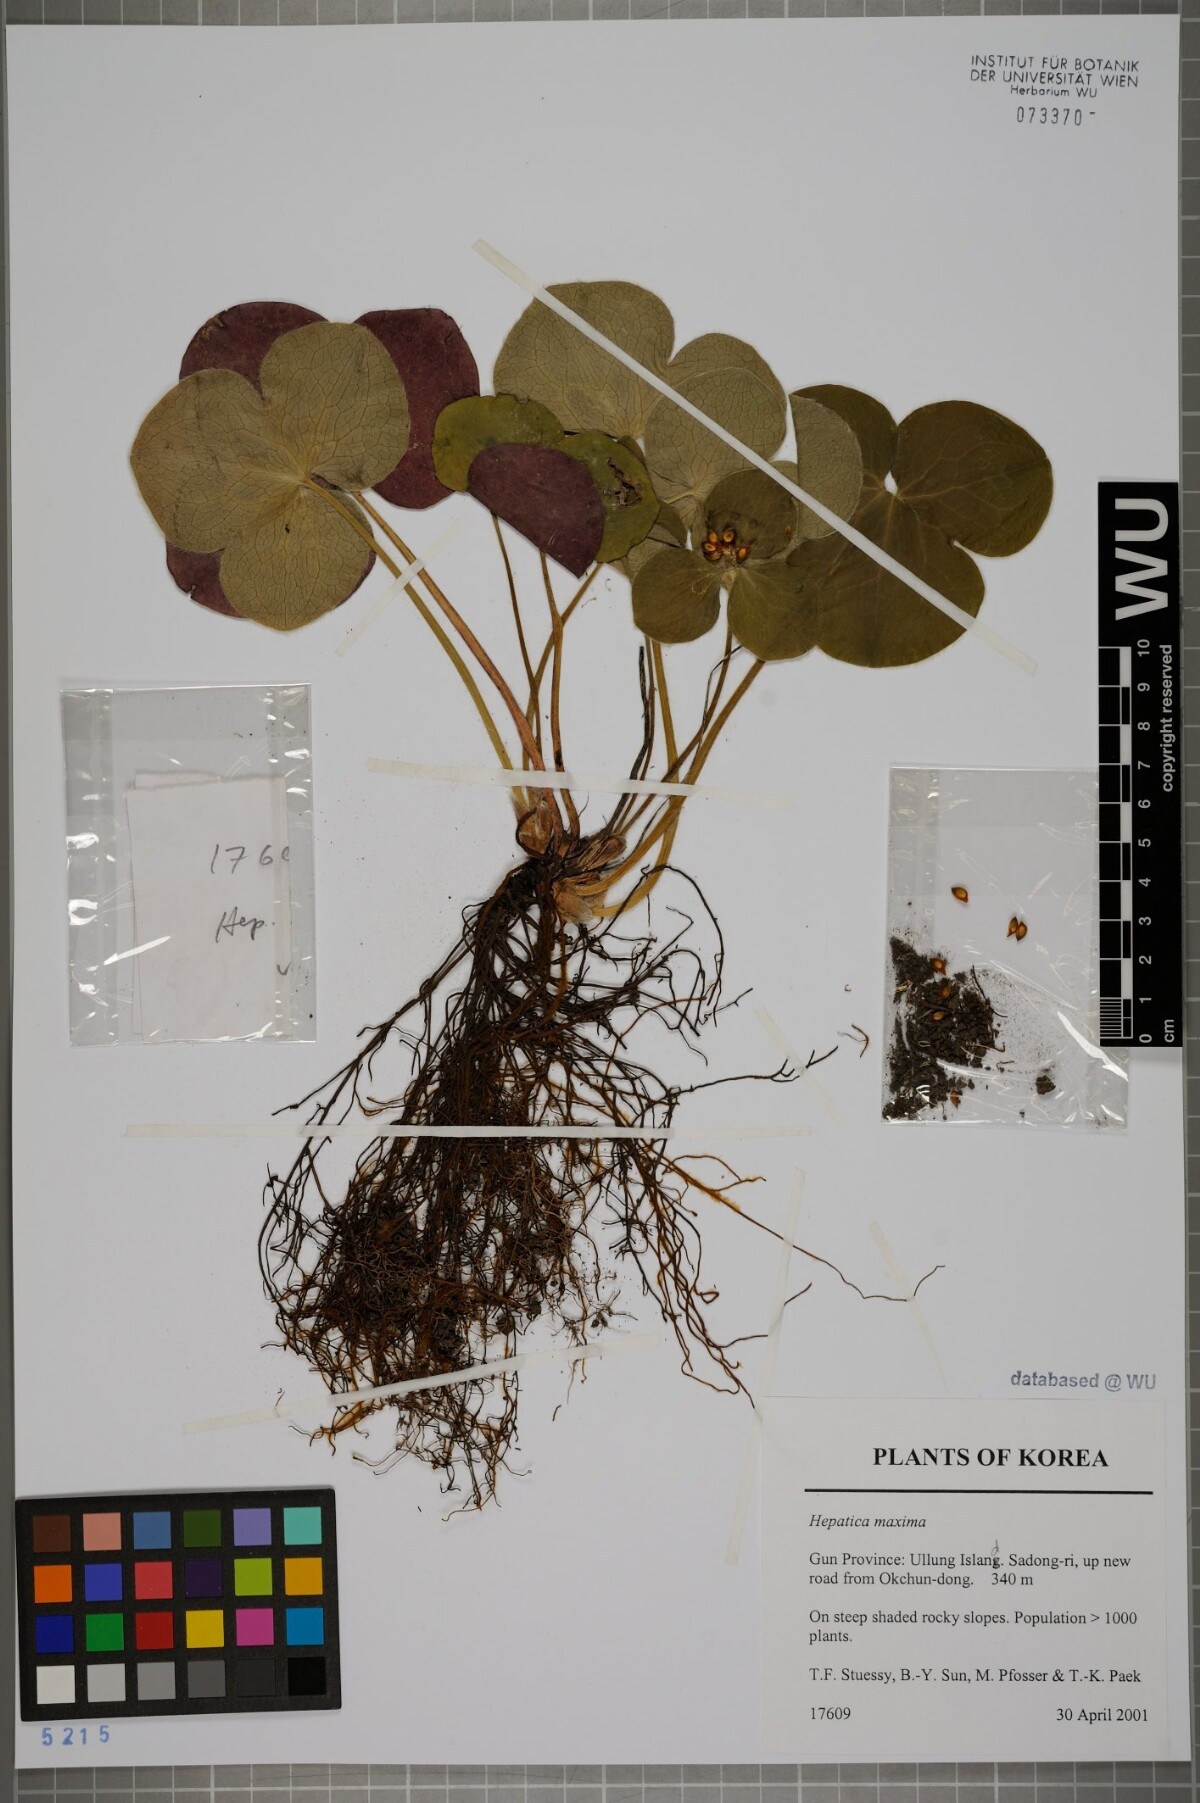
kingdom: Plantae
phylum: Tracheophyta
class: Magnoliopsida
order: Ranunculales
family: Ranunculaceae
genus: Hepatica
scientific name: Hepatica maxima
